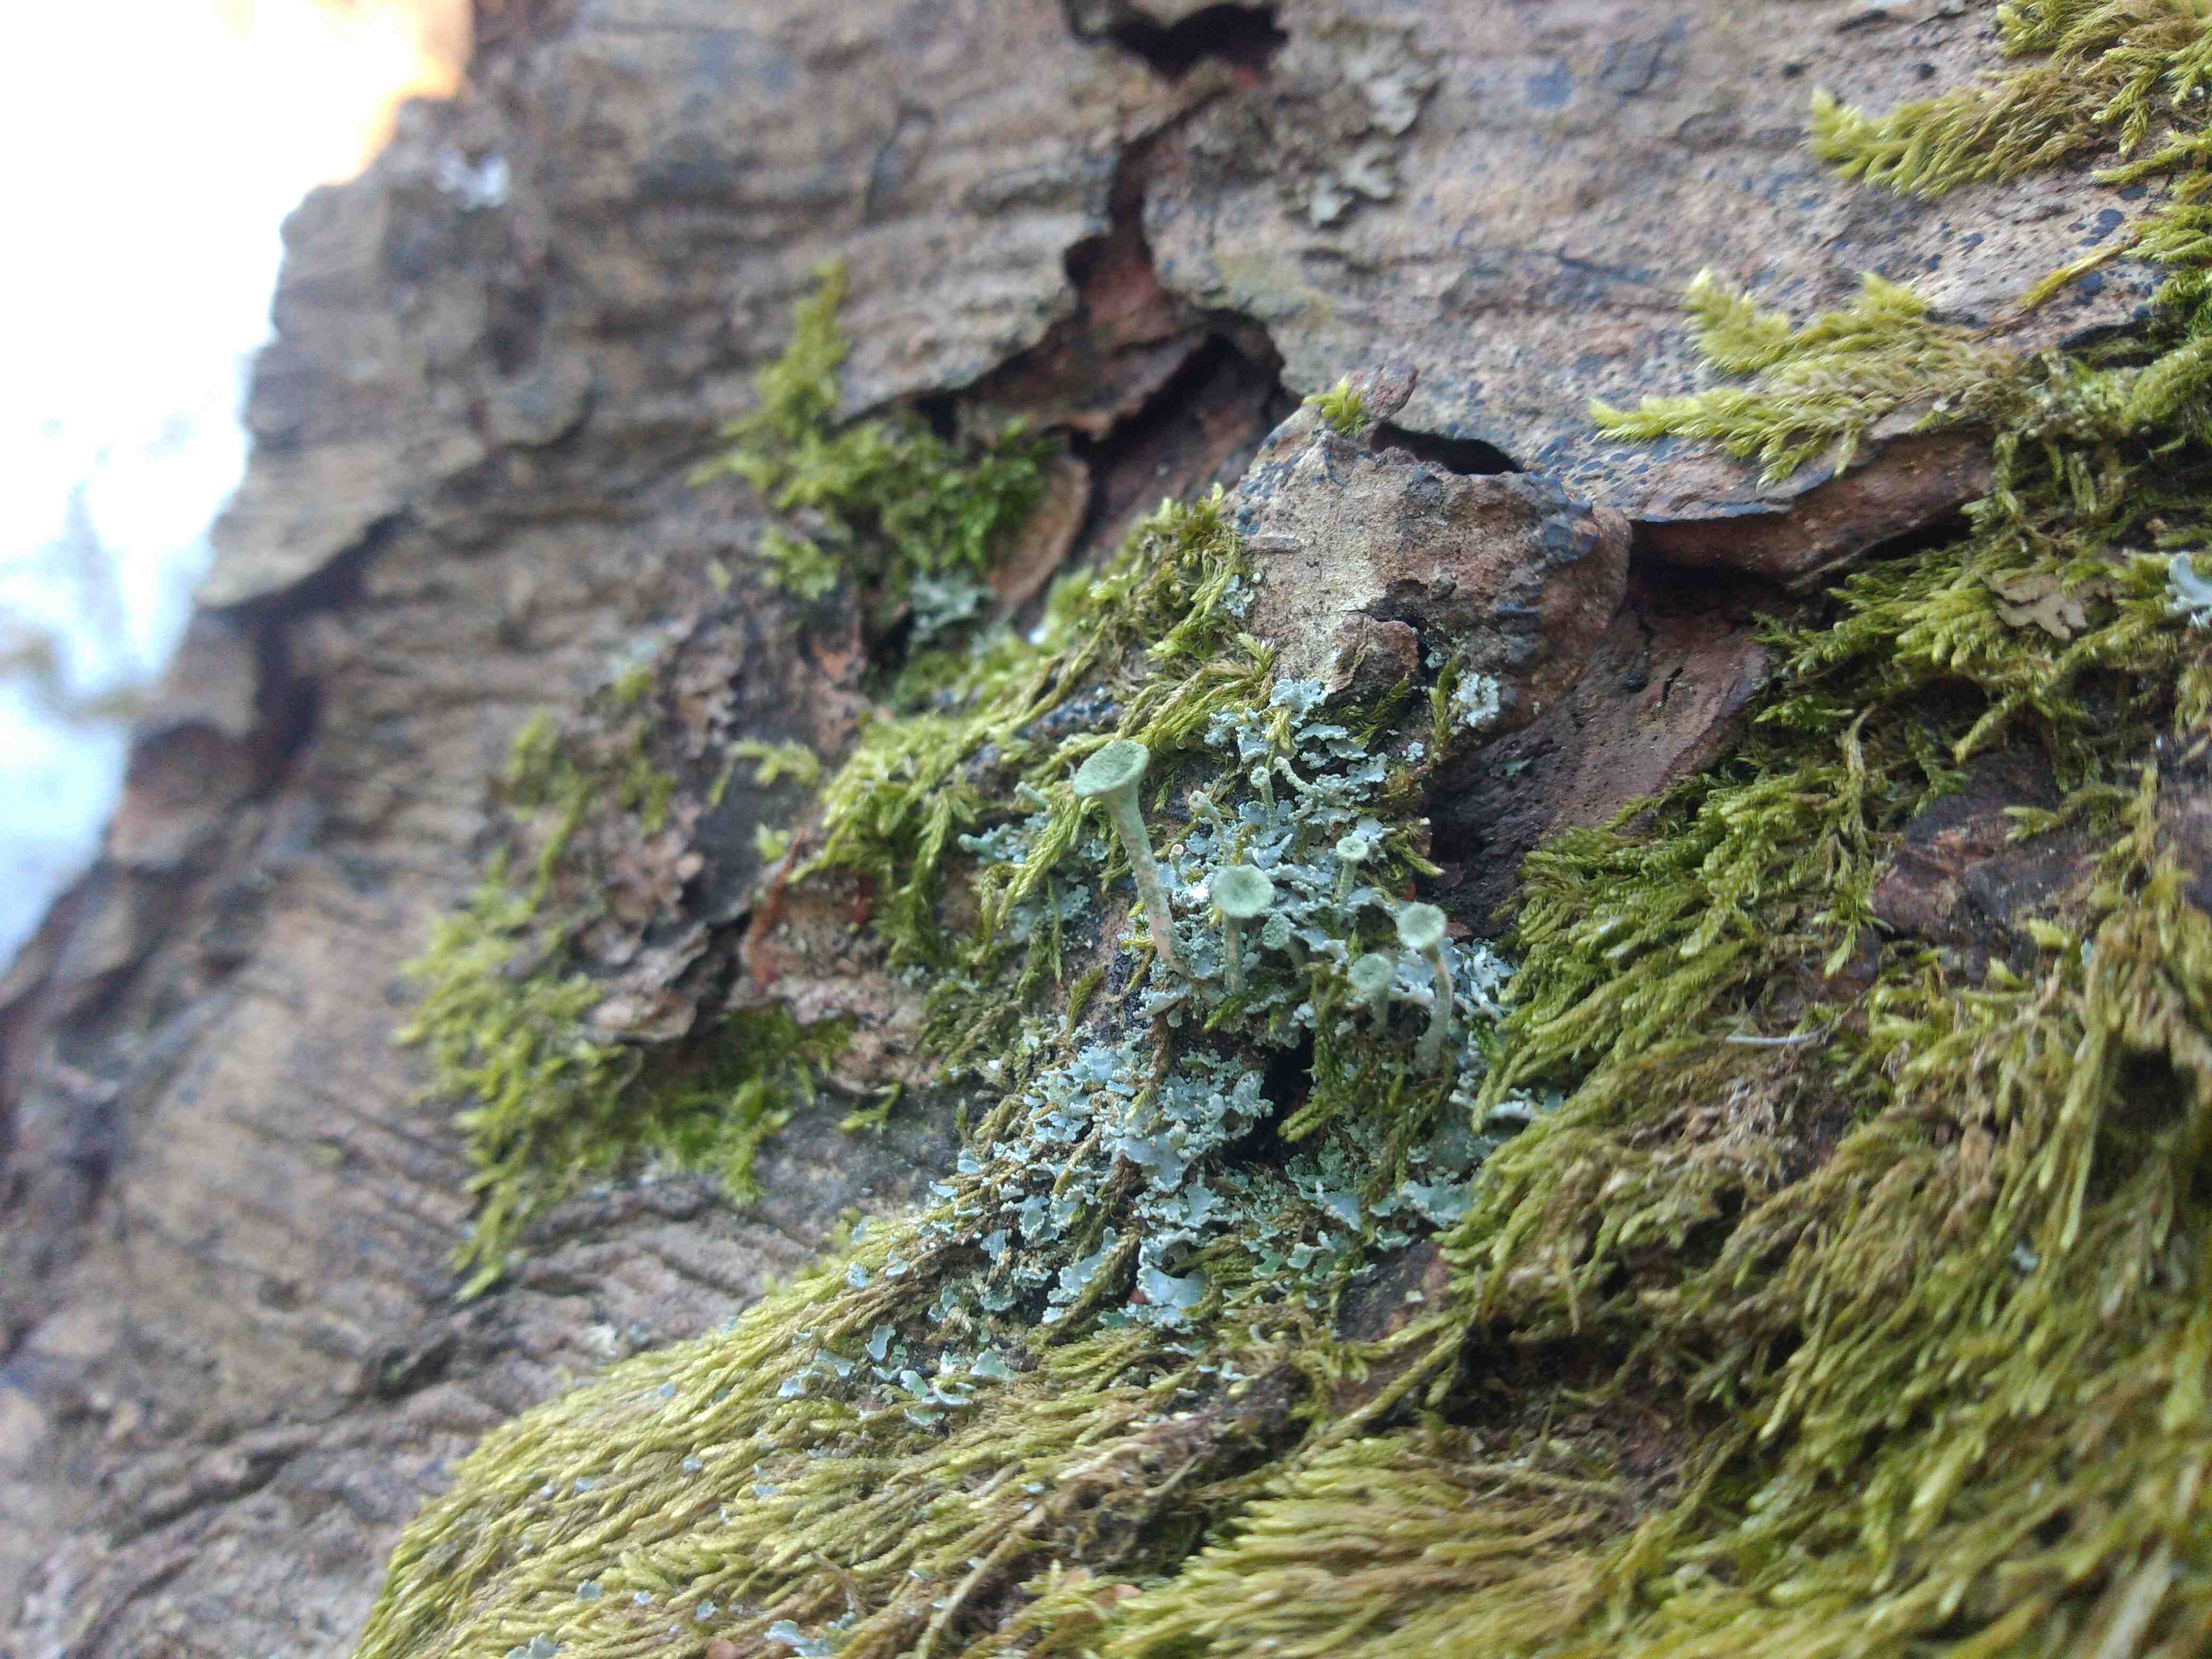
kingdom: Fungi
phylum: Ascomycota
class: Lecanoromycetes
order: Lecanorales
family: Cladoniaceae
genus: Cladonia
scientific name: Cladonia fimbriata
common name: bleggrøn bægerlav
